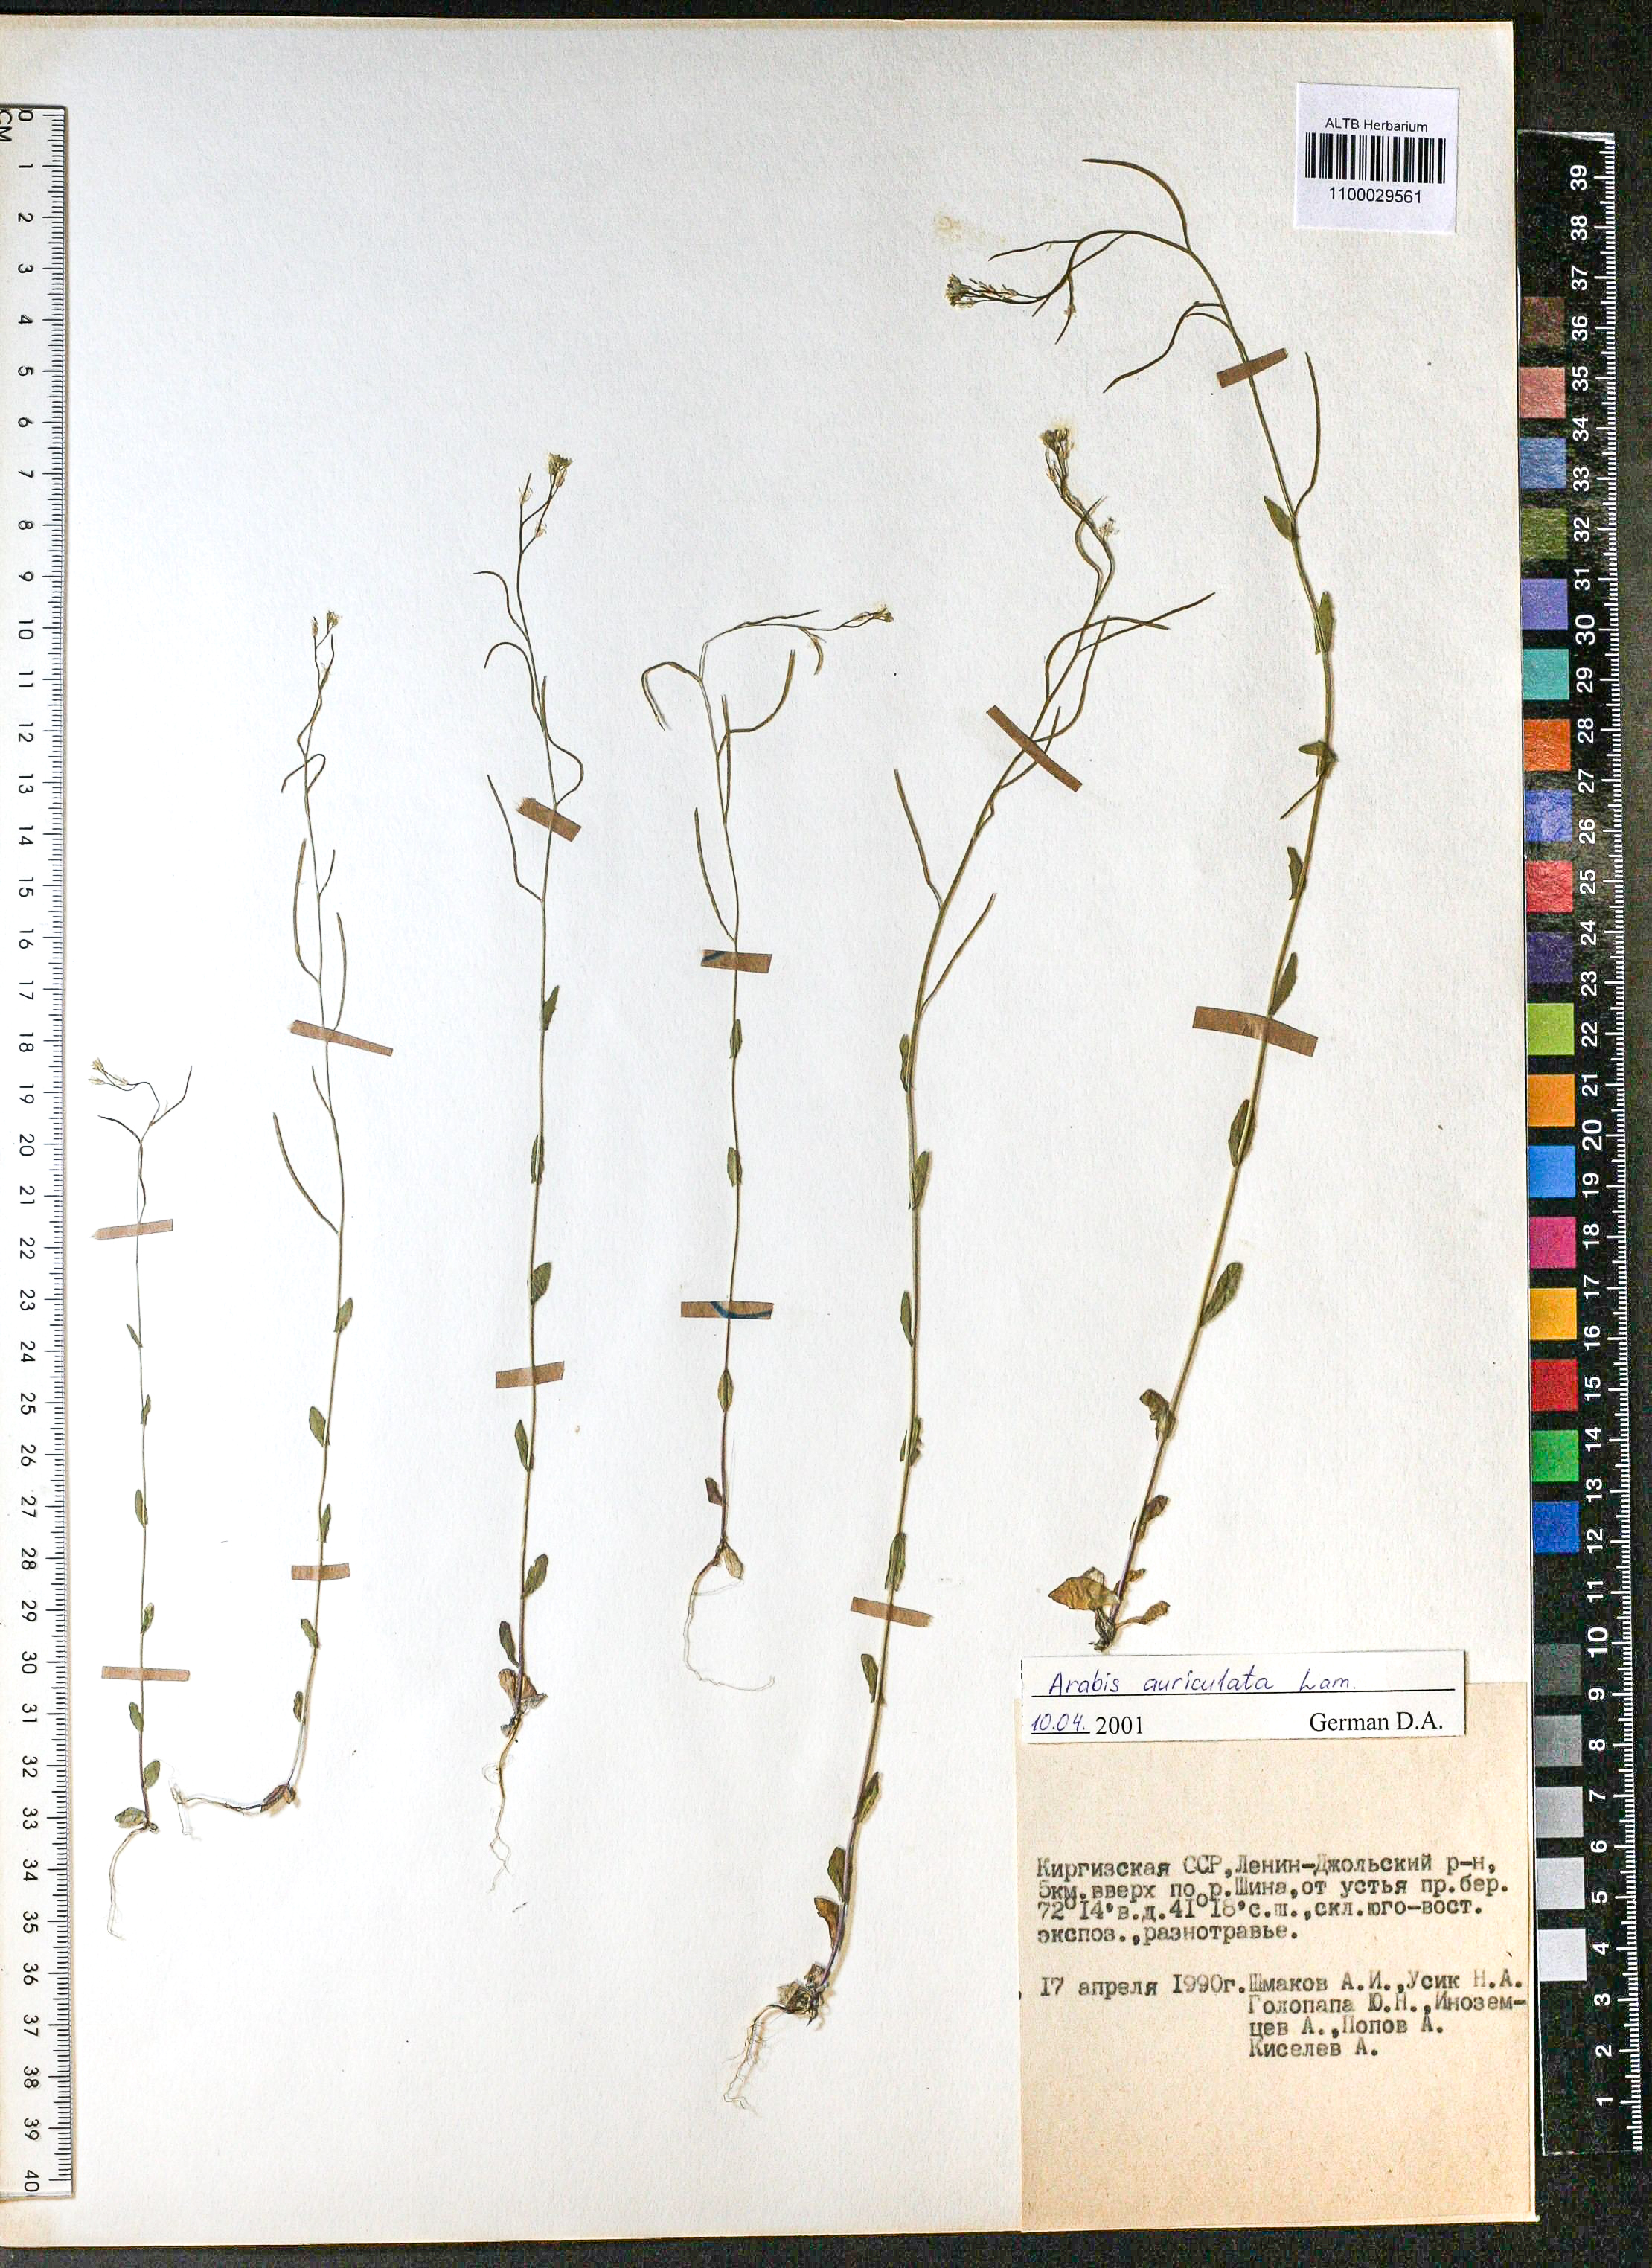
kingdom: Plantae
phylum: Tracheophyta
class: Magnoliopsida
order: Brassicales
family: Brassicaceae
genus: Arabis
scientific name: Arabis auriculata
